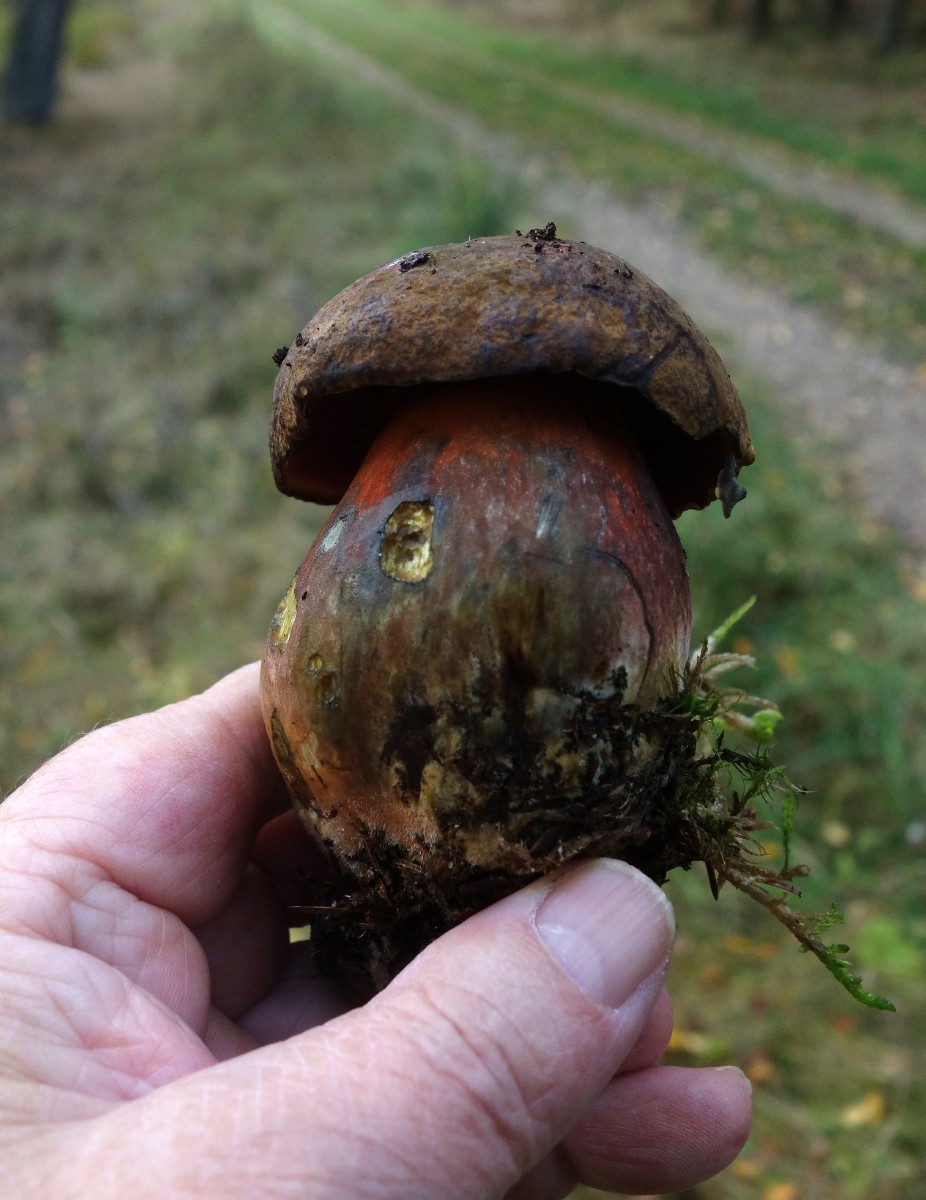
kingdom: Fungi
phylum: Basidiomycota
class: Agaricomycetes
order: Boletales
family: Boletaceae
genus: Neoboletus
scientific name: Neoboletus erythropus
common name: punktstokket indigorørhat
